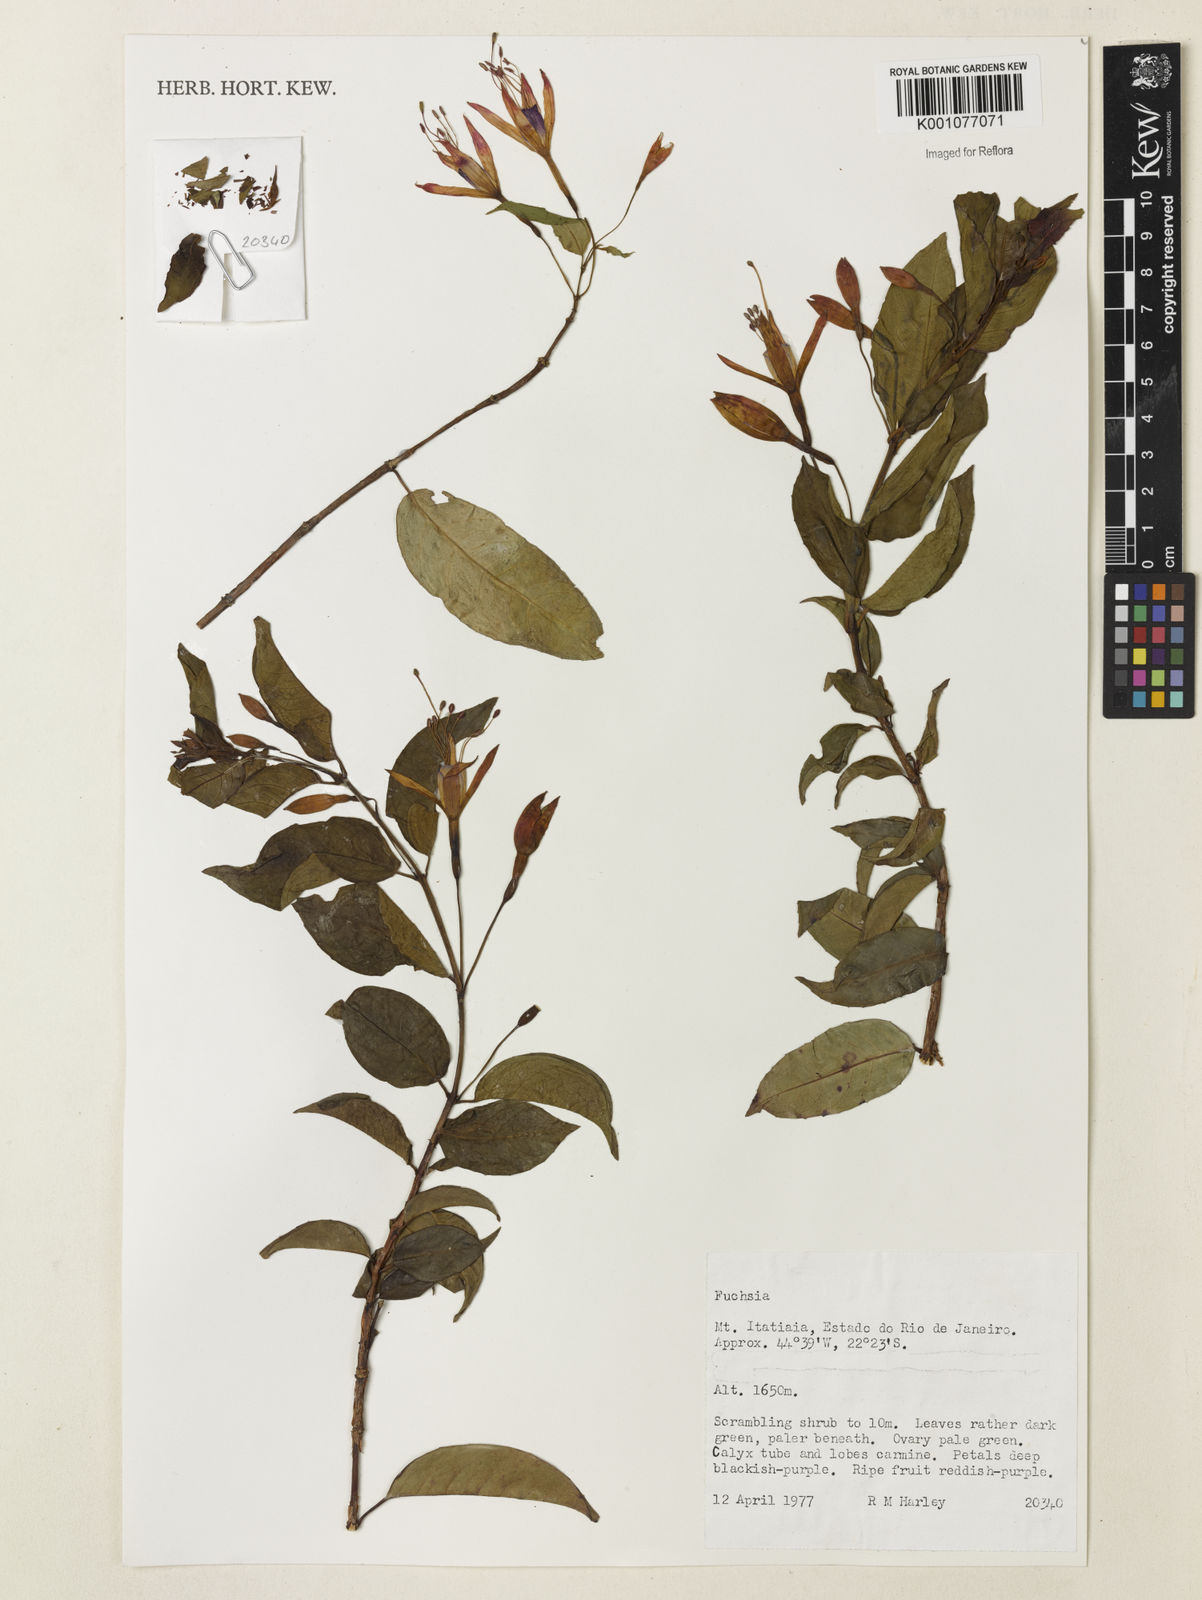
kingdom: Plantae
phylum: Tracheophyta
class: Magnoliopsida
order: Myrtales
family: Onagraceae
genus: Fuchsia
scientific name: Fuchsia
